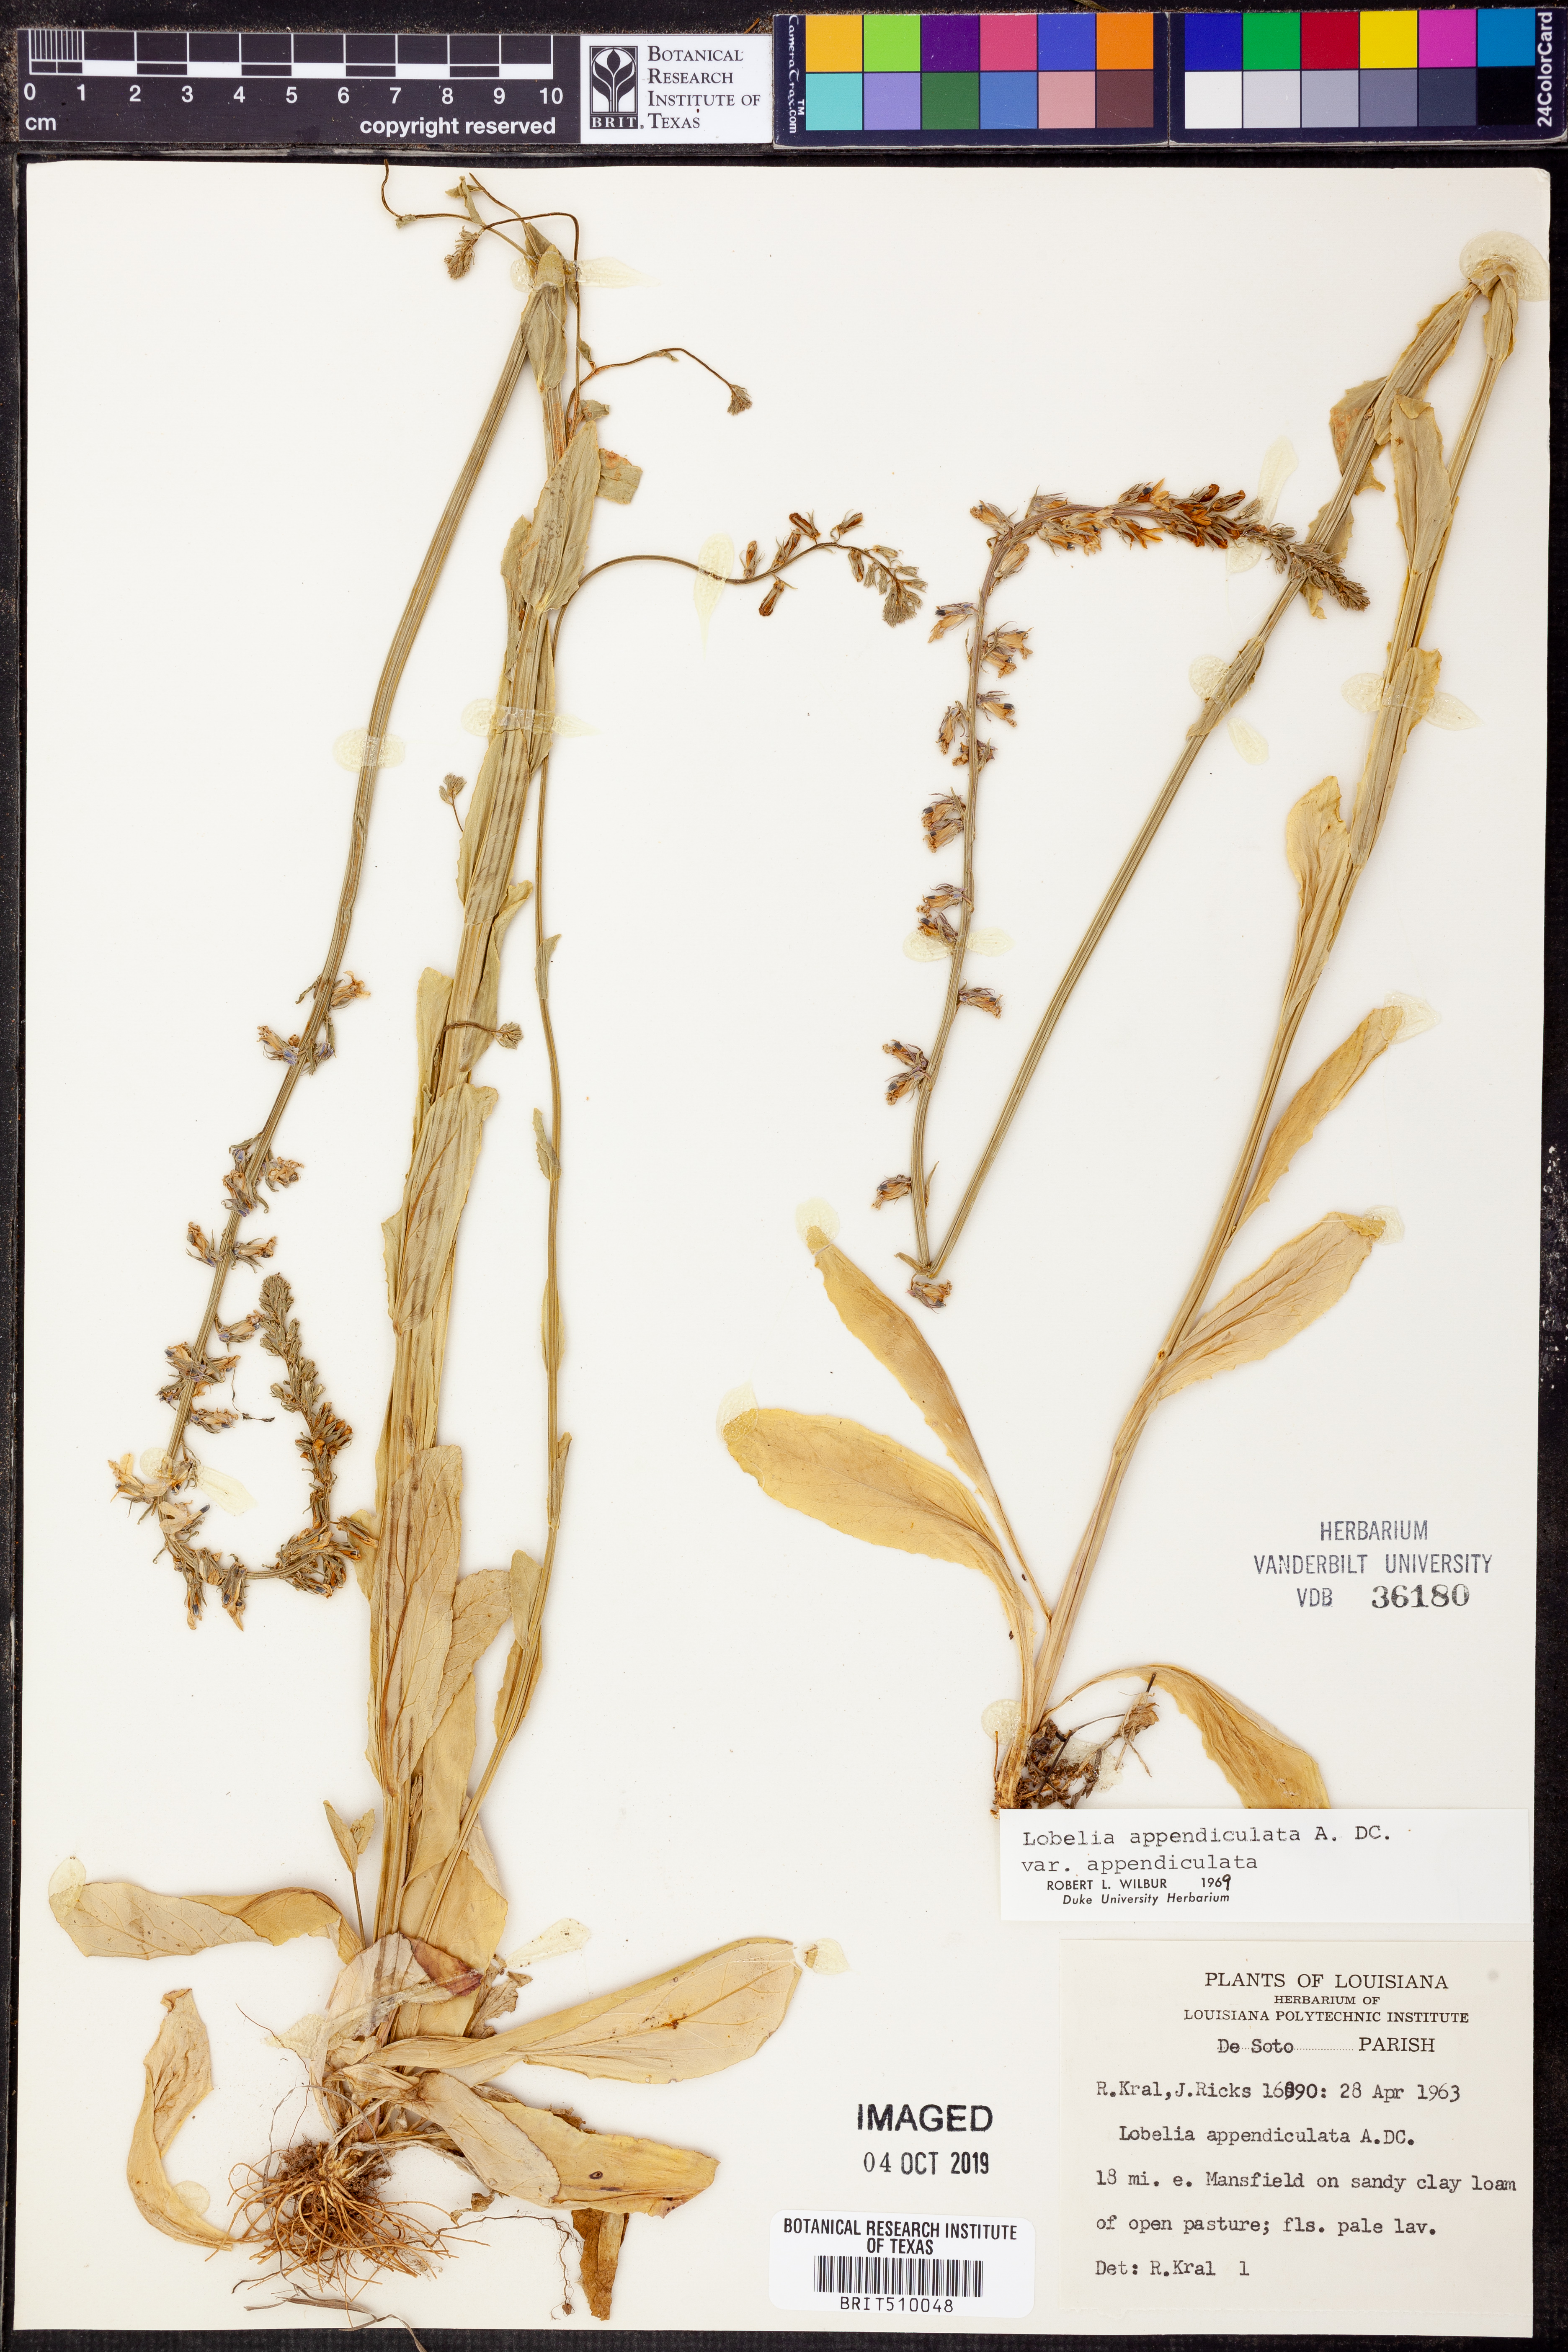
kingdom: Plantae
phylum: Tracheophyta
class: Magnoliopsida
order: Asterales
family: Campanulaceae
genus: Lobelia
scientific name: Lobelia appendiculata
